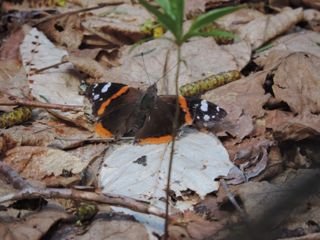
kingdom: Animalia
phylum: Arthropoda
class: Insecta
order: Lepidoptera
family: Nymphalidae
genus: Vanessa
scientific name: Vanessa atalanta
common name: Red Admiral
